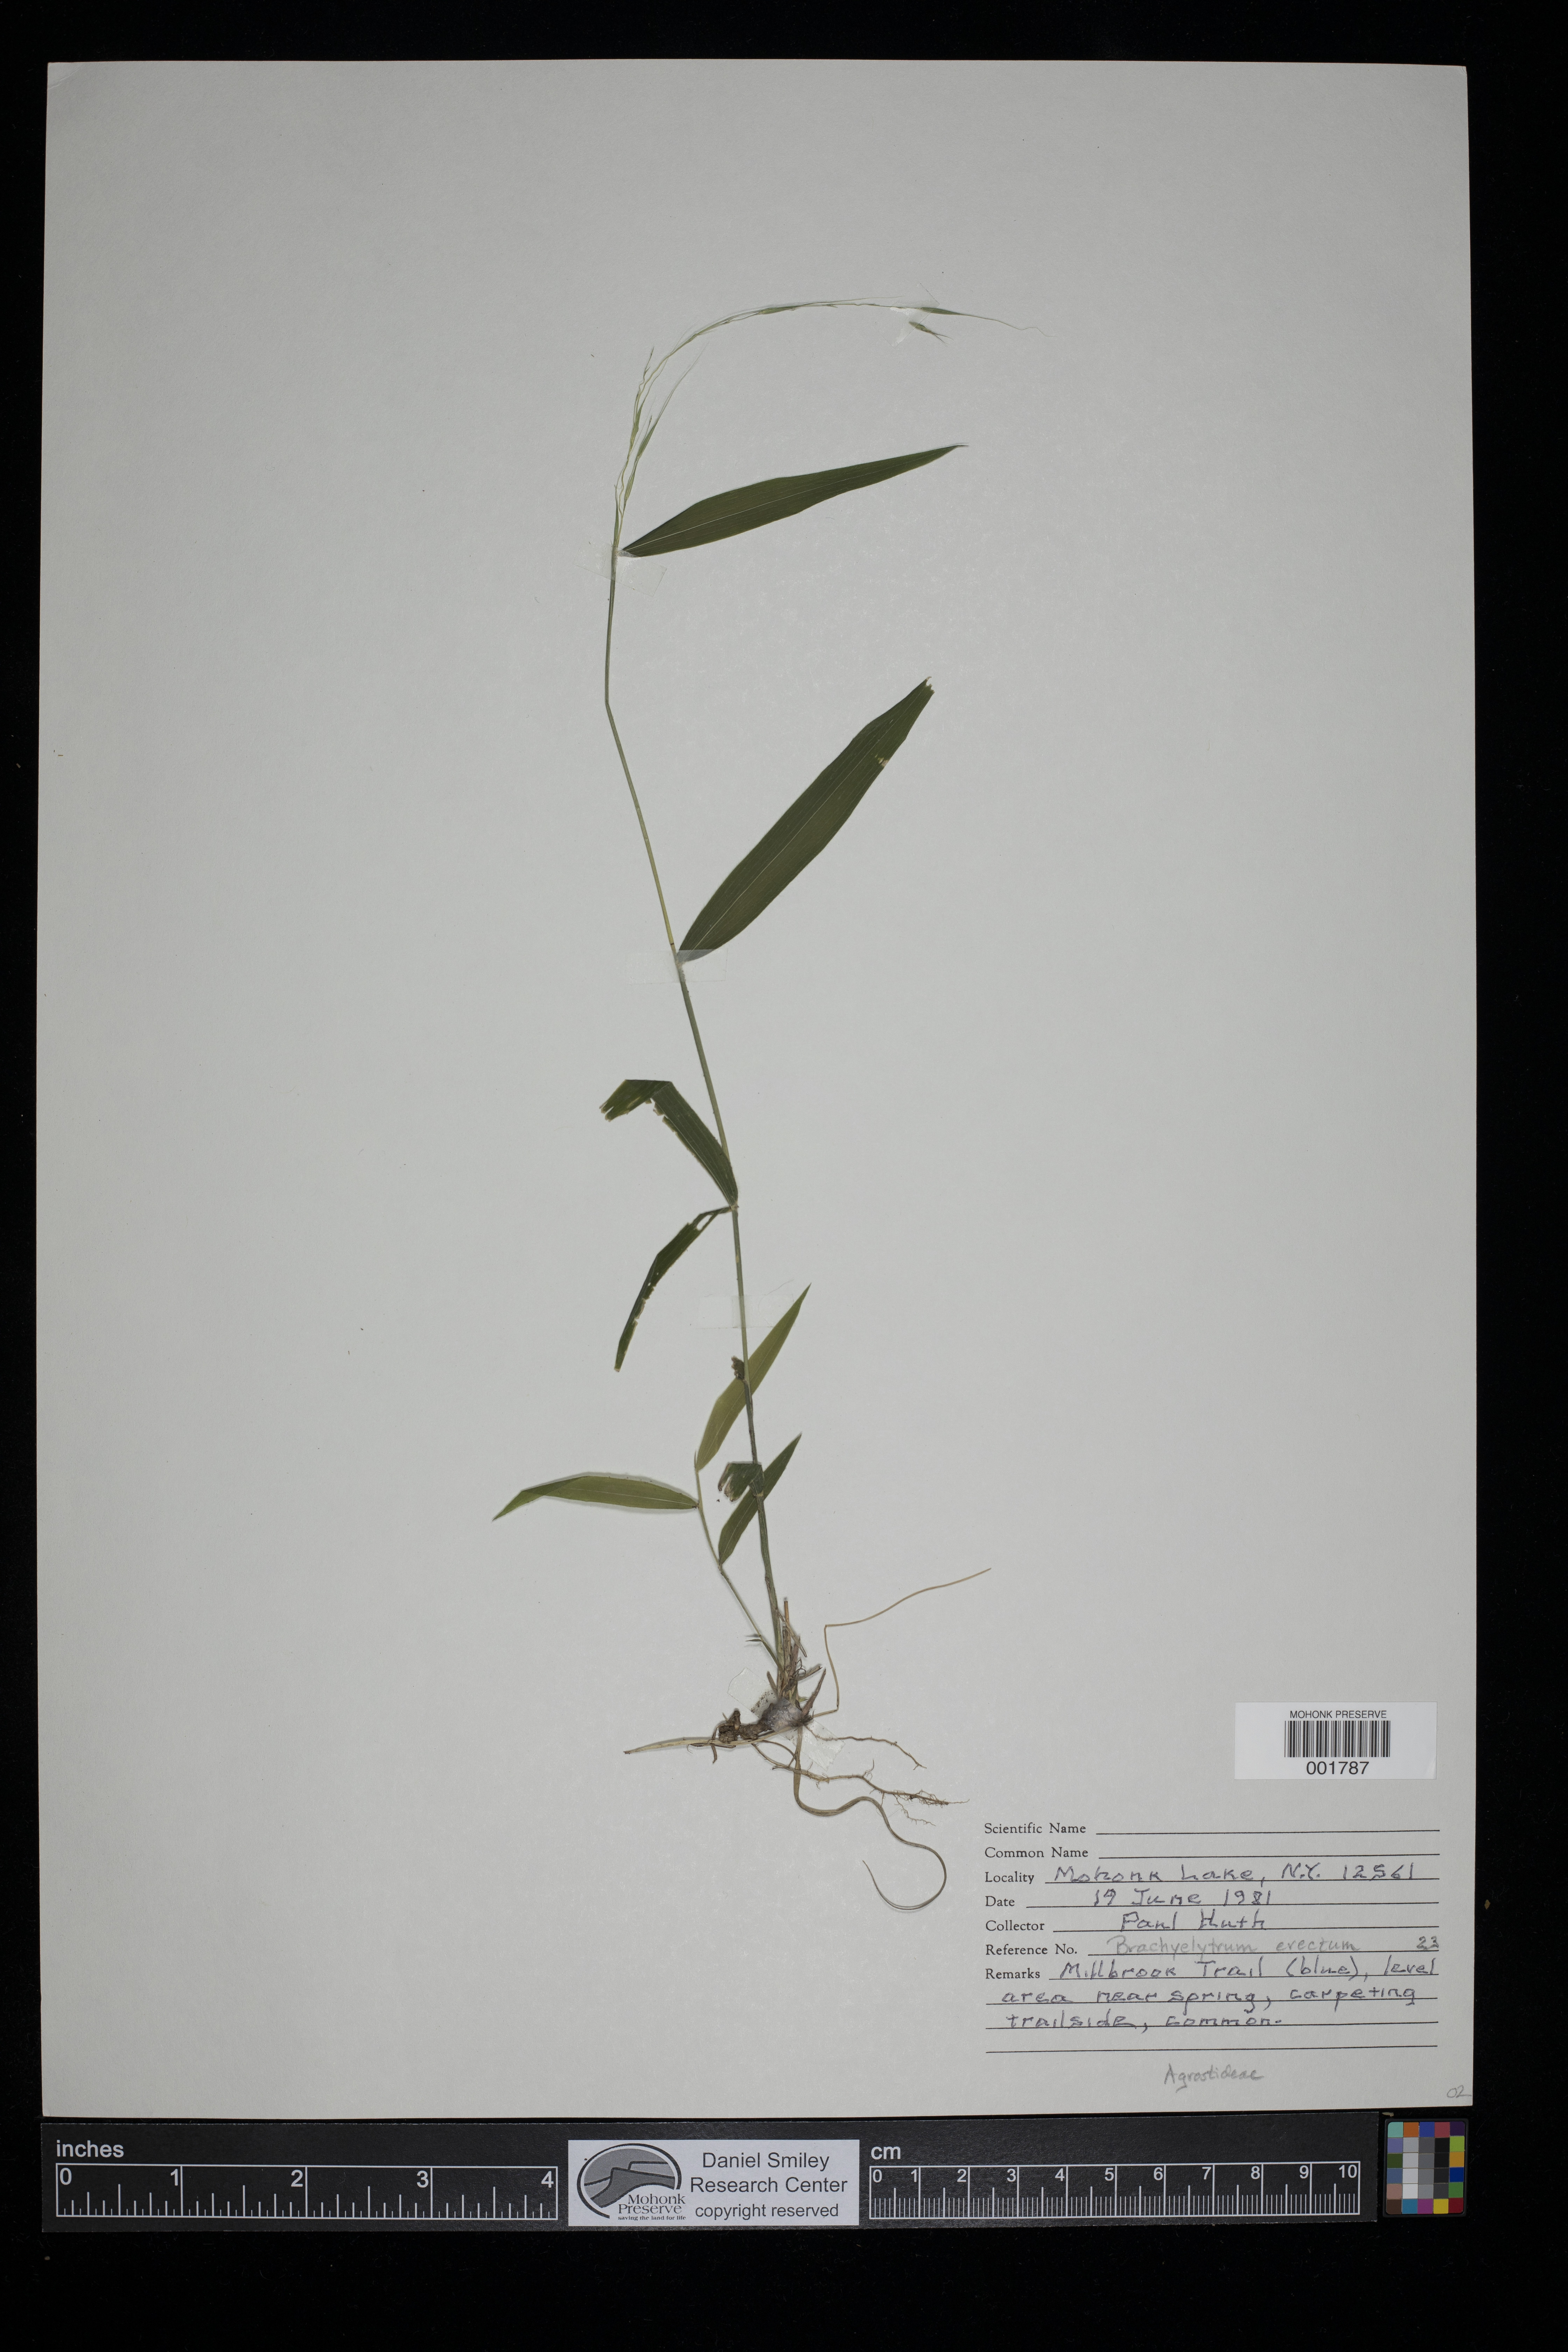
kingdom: Plantae
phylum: Tracheophyta
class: Liliopsida
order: Poales
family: Poaceae
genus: Brachyelytrum
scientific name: Brachyelytrum erectum
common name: Bearded shorthusk
